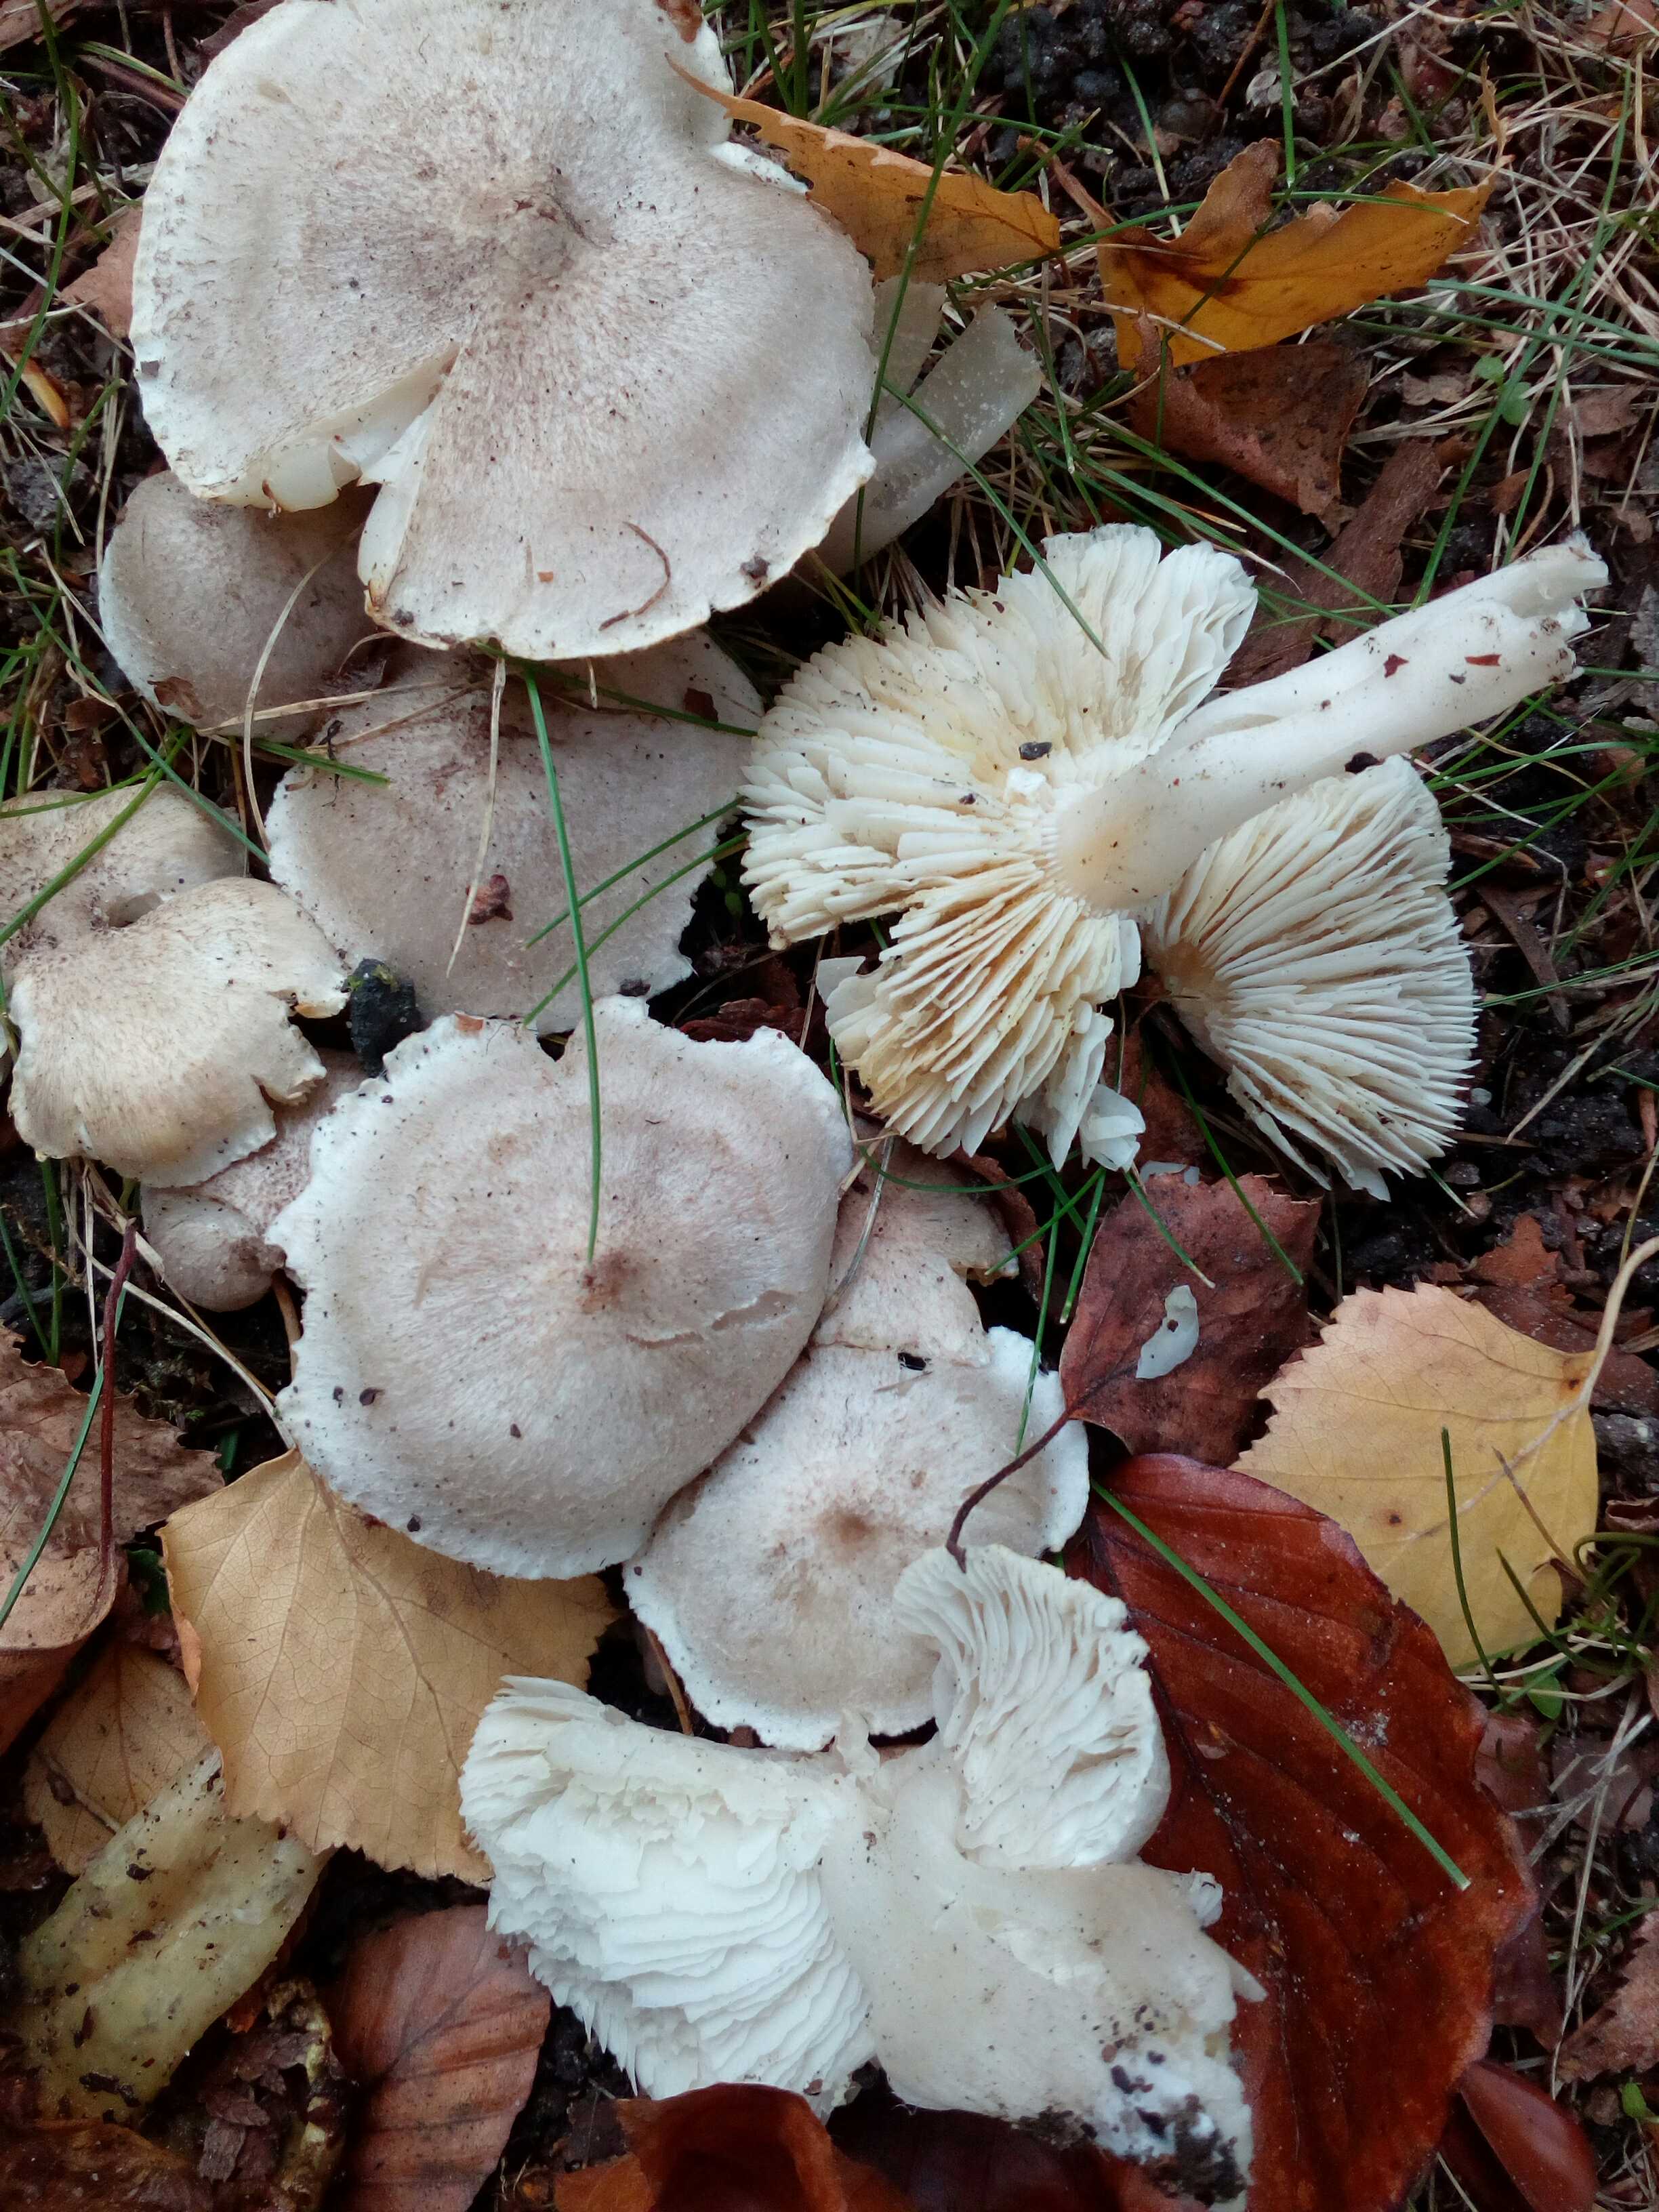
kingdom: Fungi
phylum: Basidiomycota
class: Agaricomycetes
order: Agaricales
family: Tricholomataceae
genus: Tricholoma
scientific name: Tricholoma scalpturatum
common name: gulplettet ridderhat
